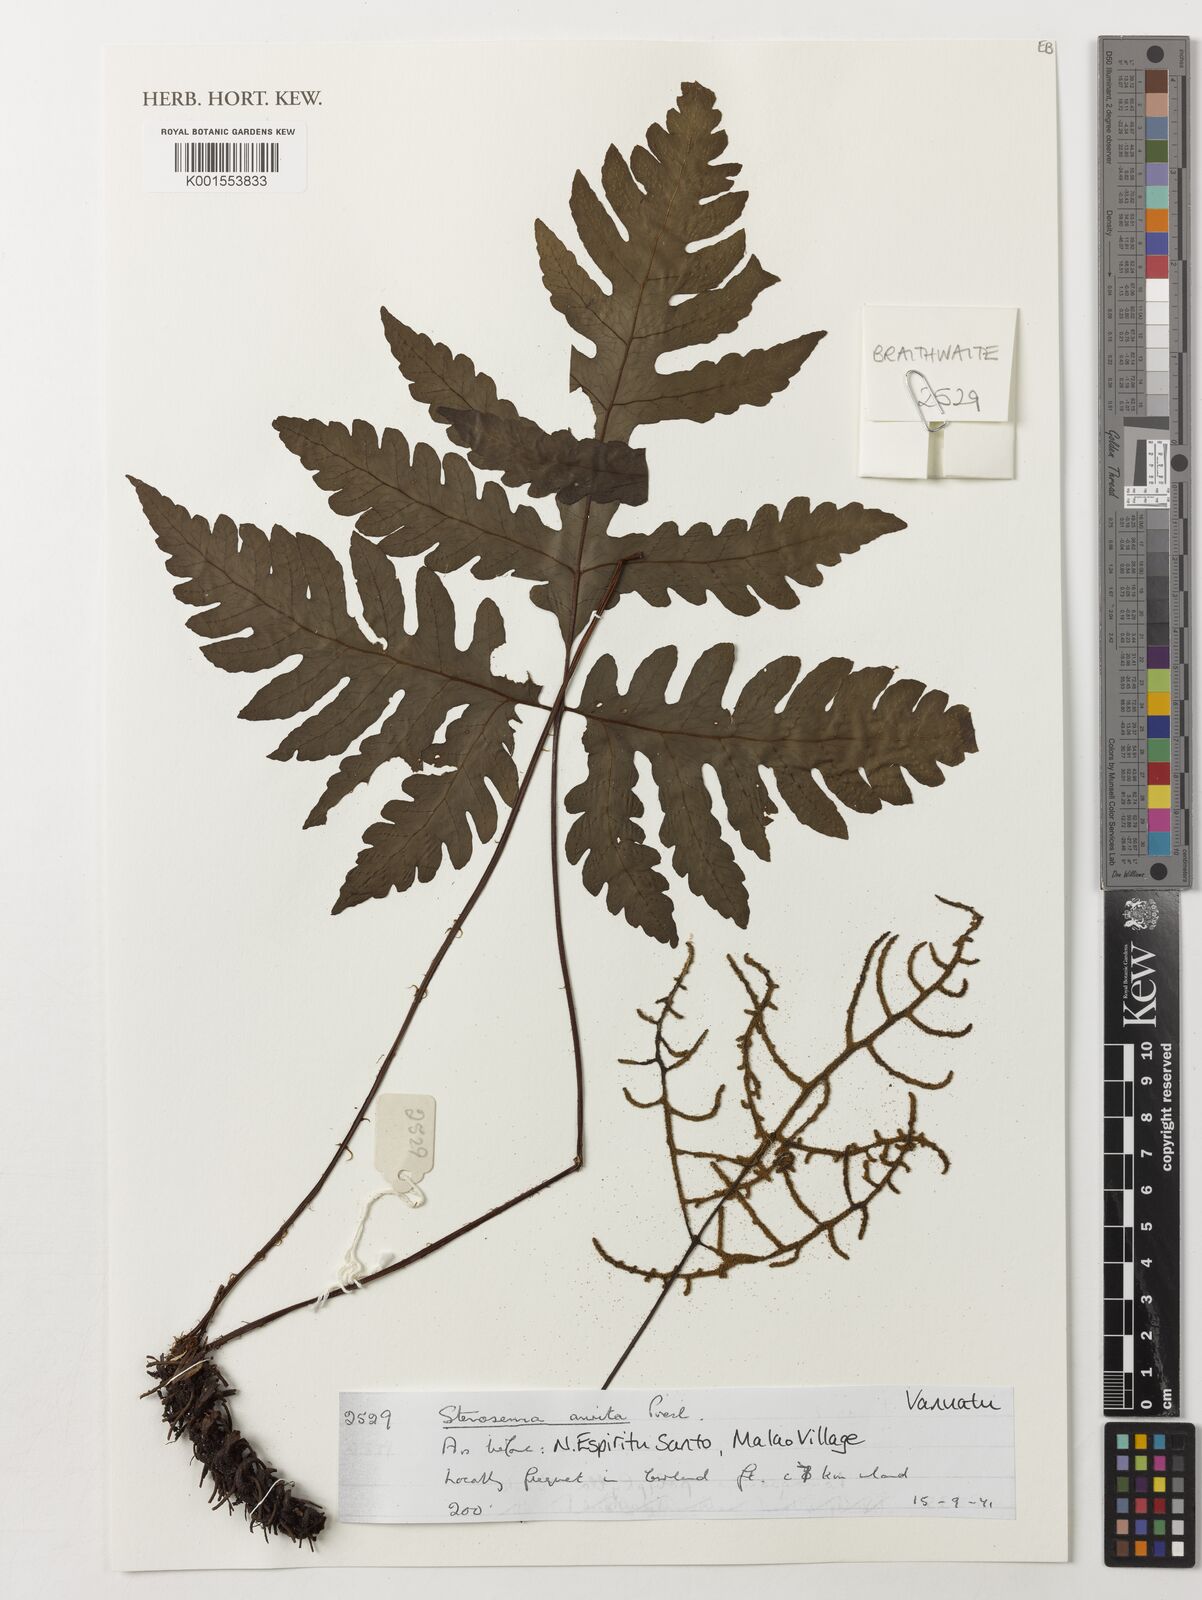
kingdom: Plantae
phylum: Tracheophyta
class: Polypodiopsida
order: Polypodiales
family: Tectariaceae
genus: Tectaria
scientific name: Tectaria aurita
